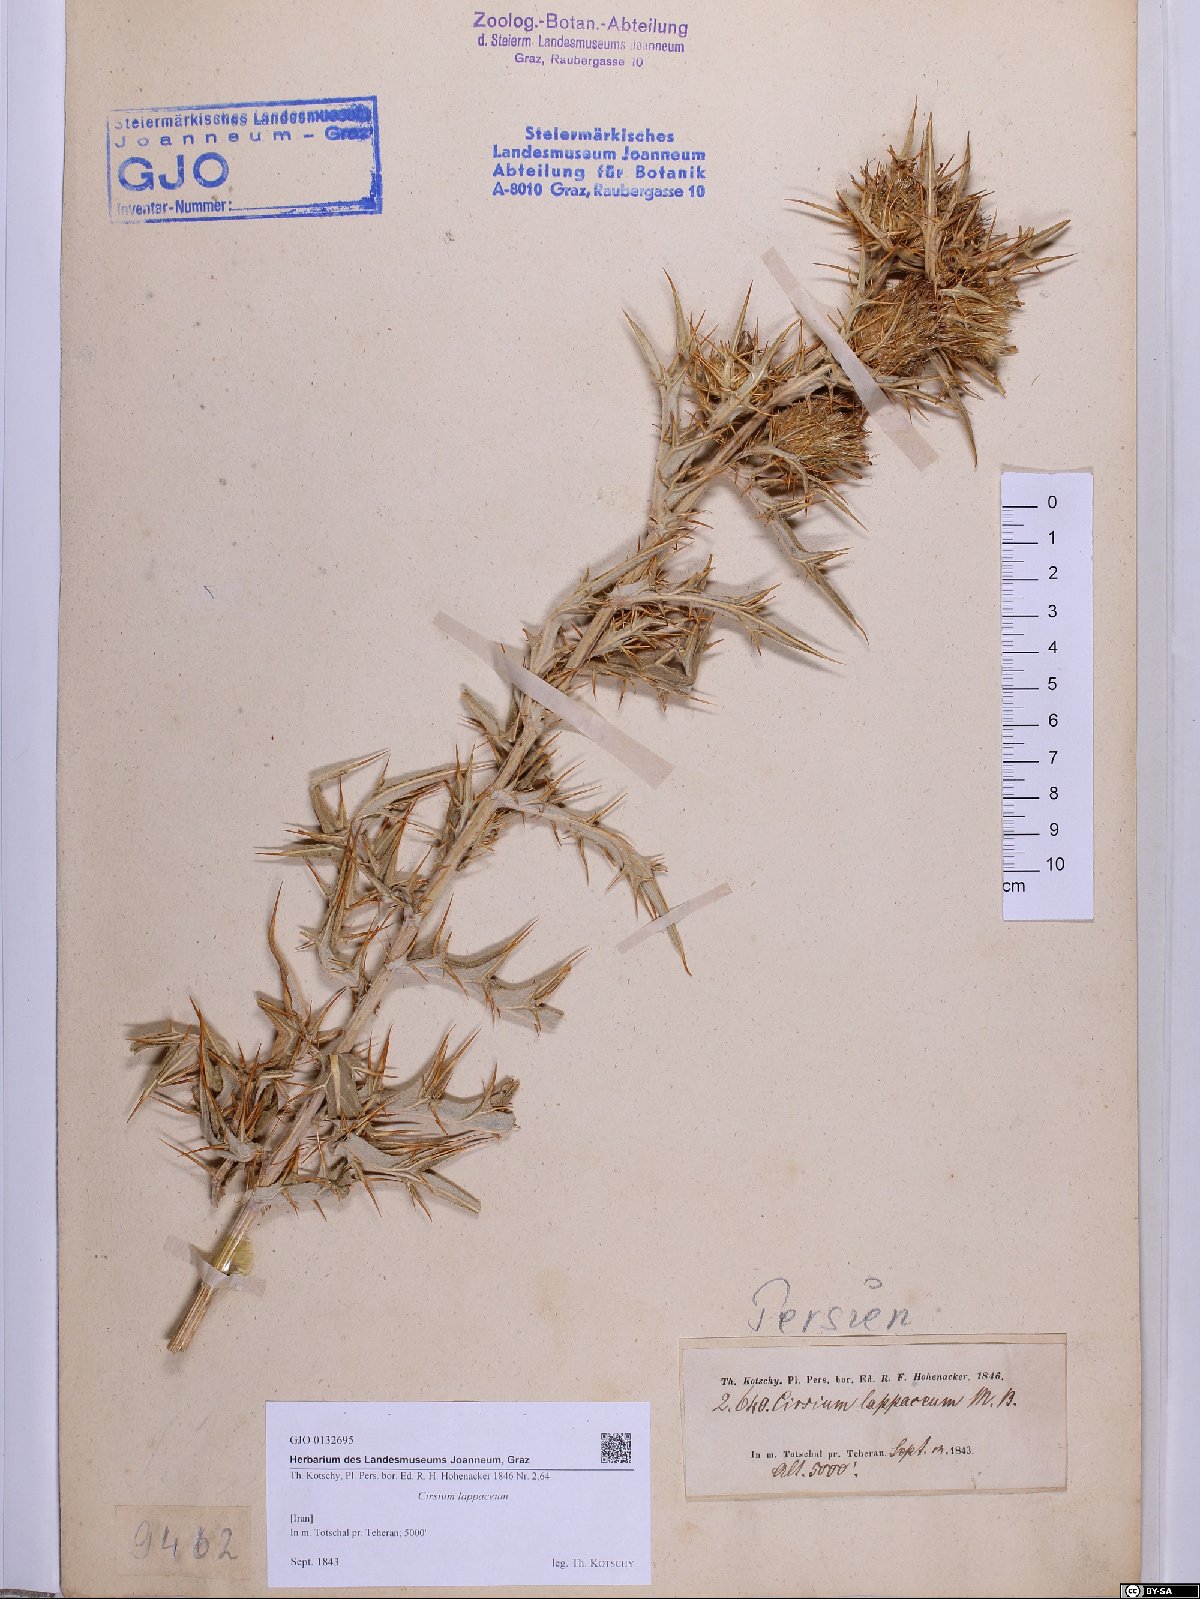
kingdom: Plantae
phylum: Tracheophyta
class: Magnoliopsida
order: Asterales
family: Asteraceae
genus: Lophiolepis
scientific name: Lophiolepis lappacea
